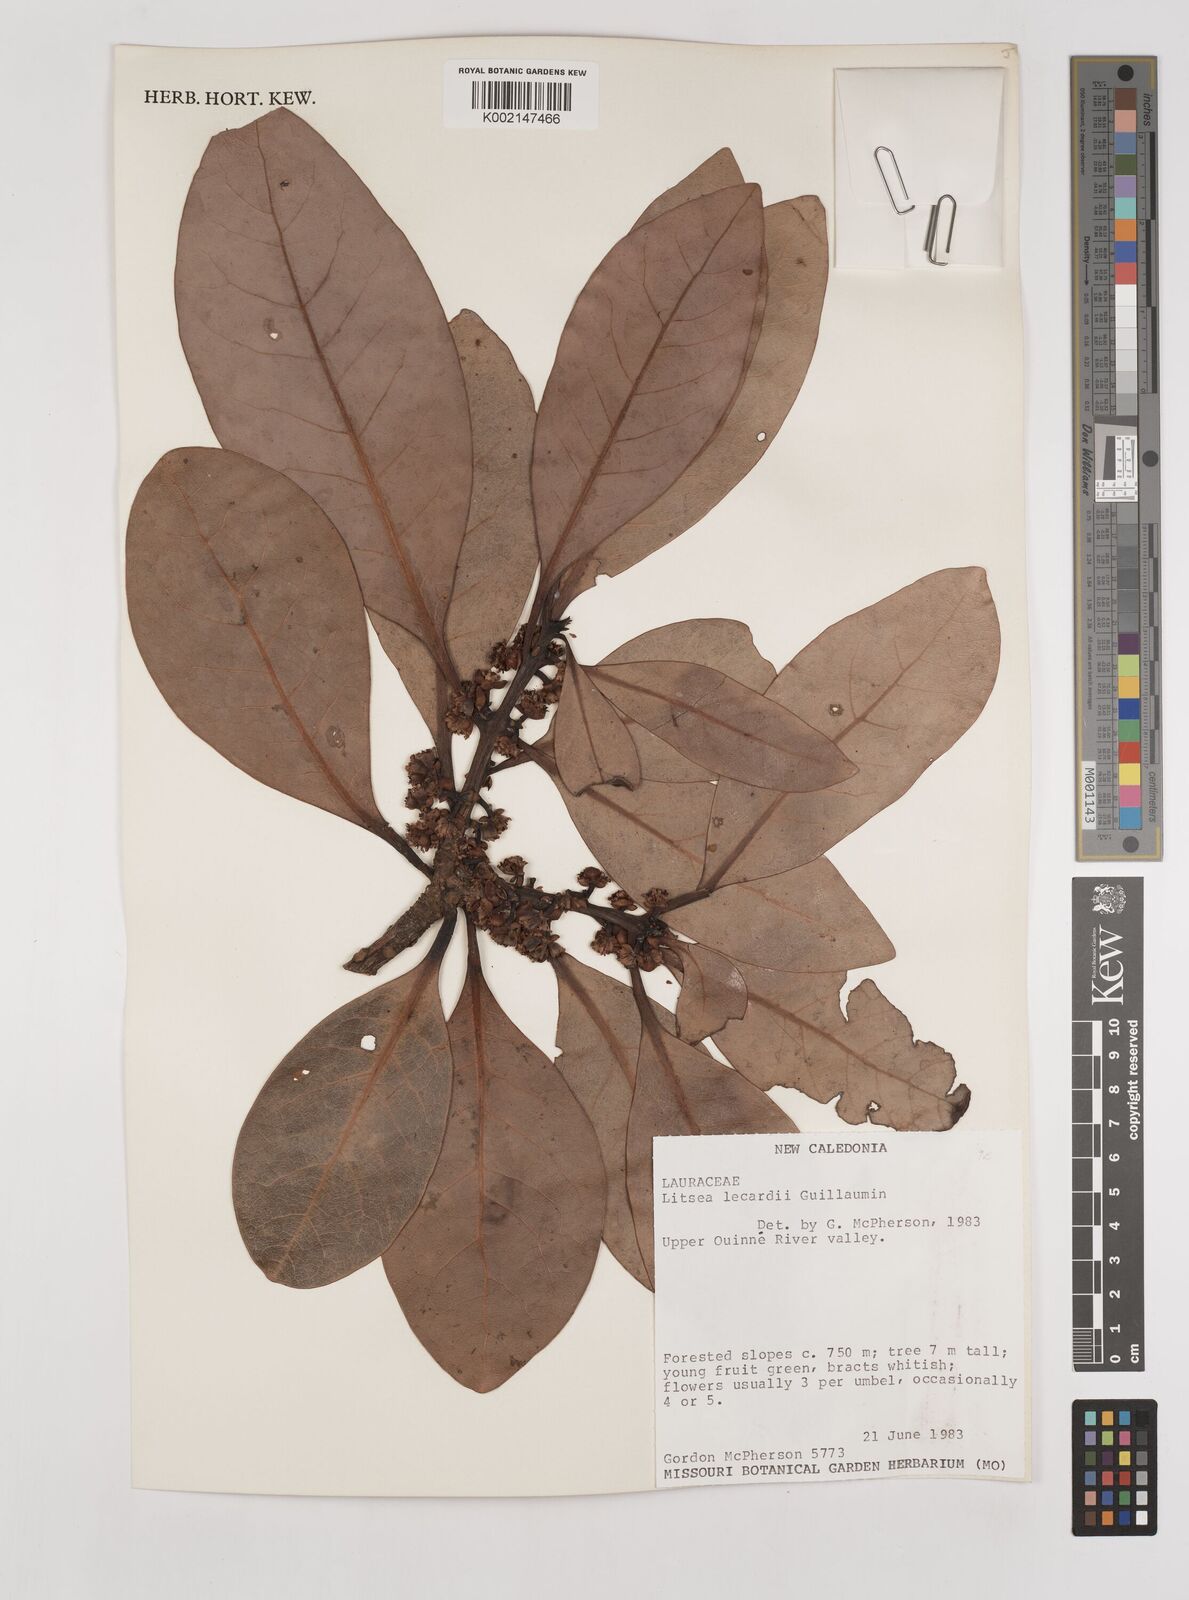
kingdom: Plantae
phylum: Tracheophyta
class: Magnoliopsida
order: Laurales
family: Lauraceae
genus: Litsea
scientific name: Litsea lecardii
